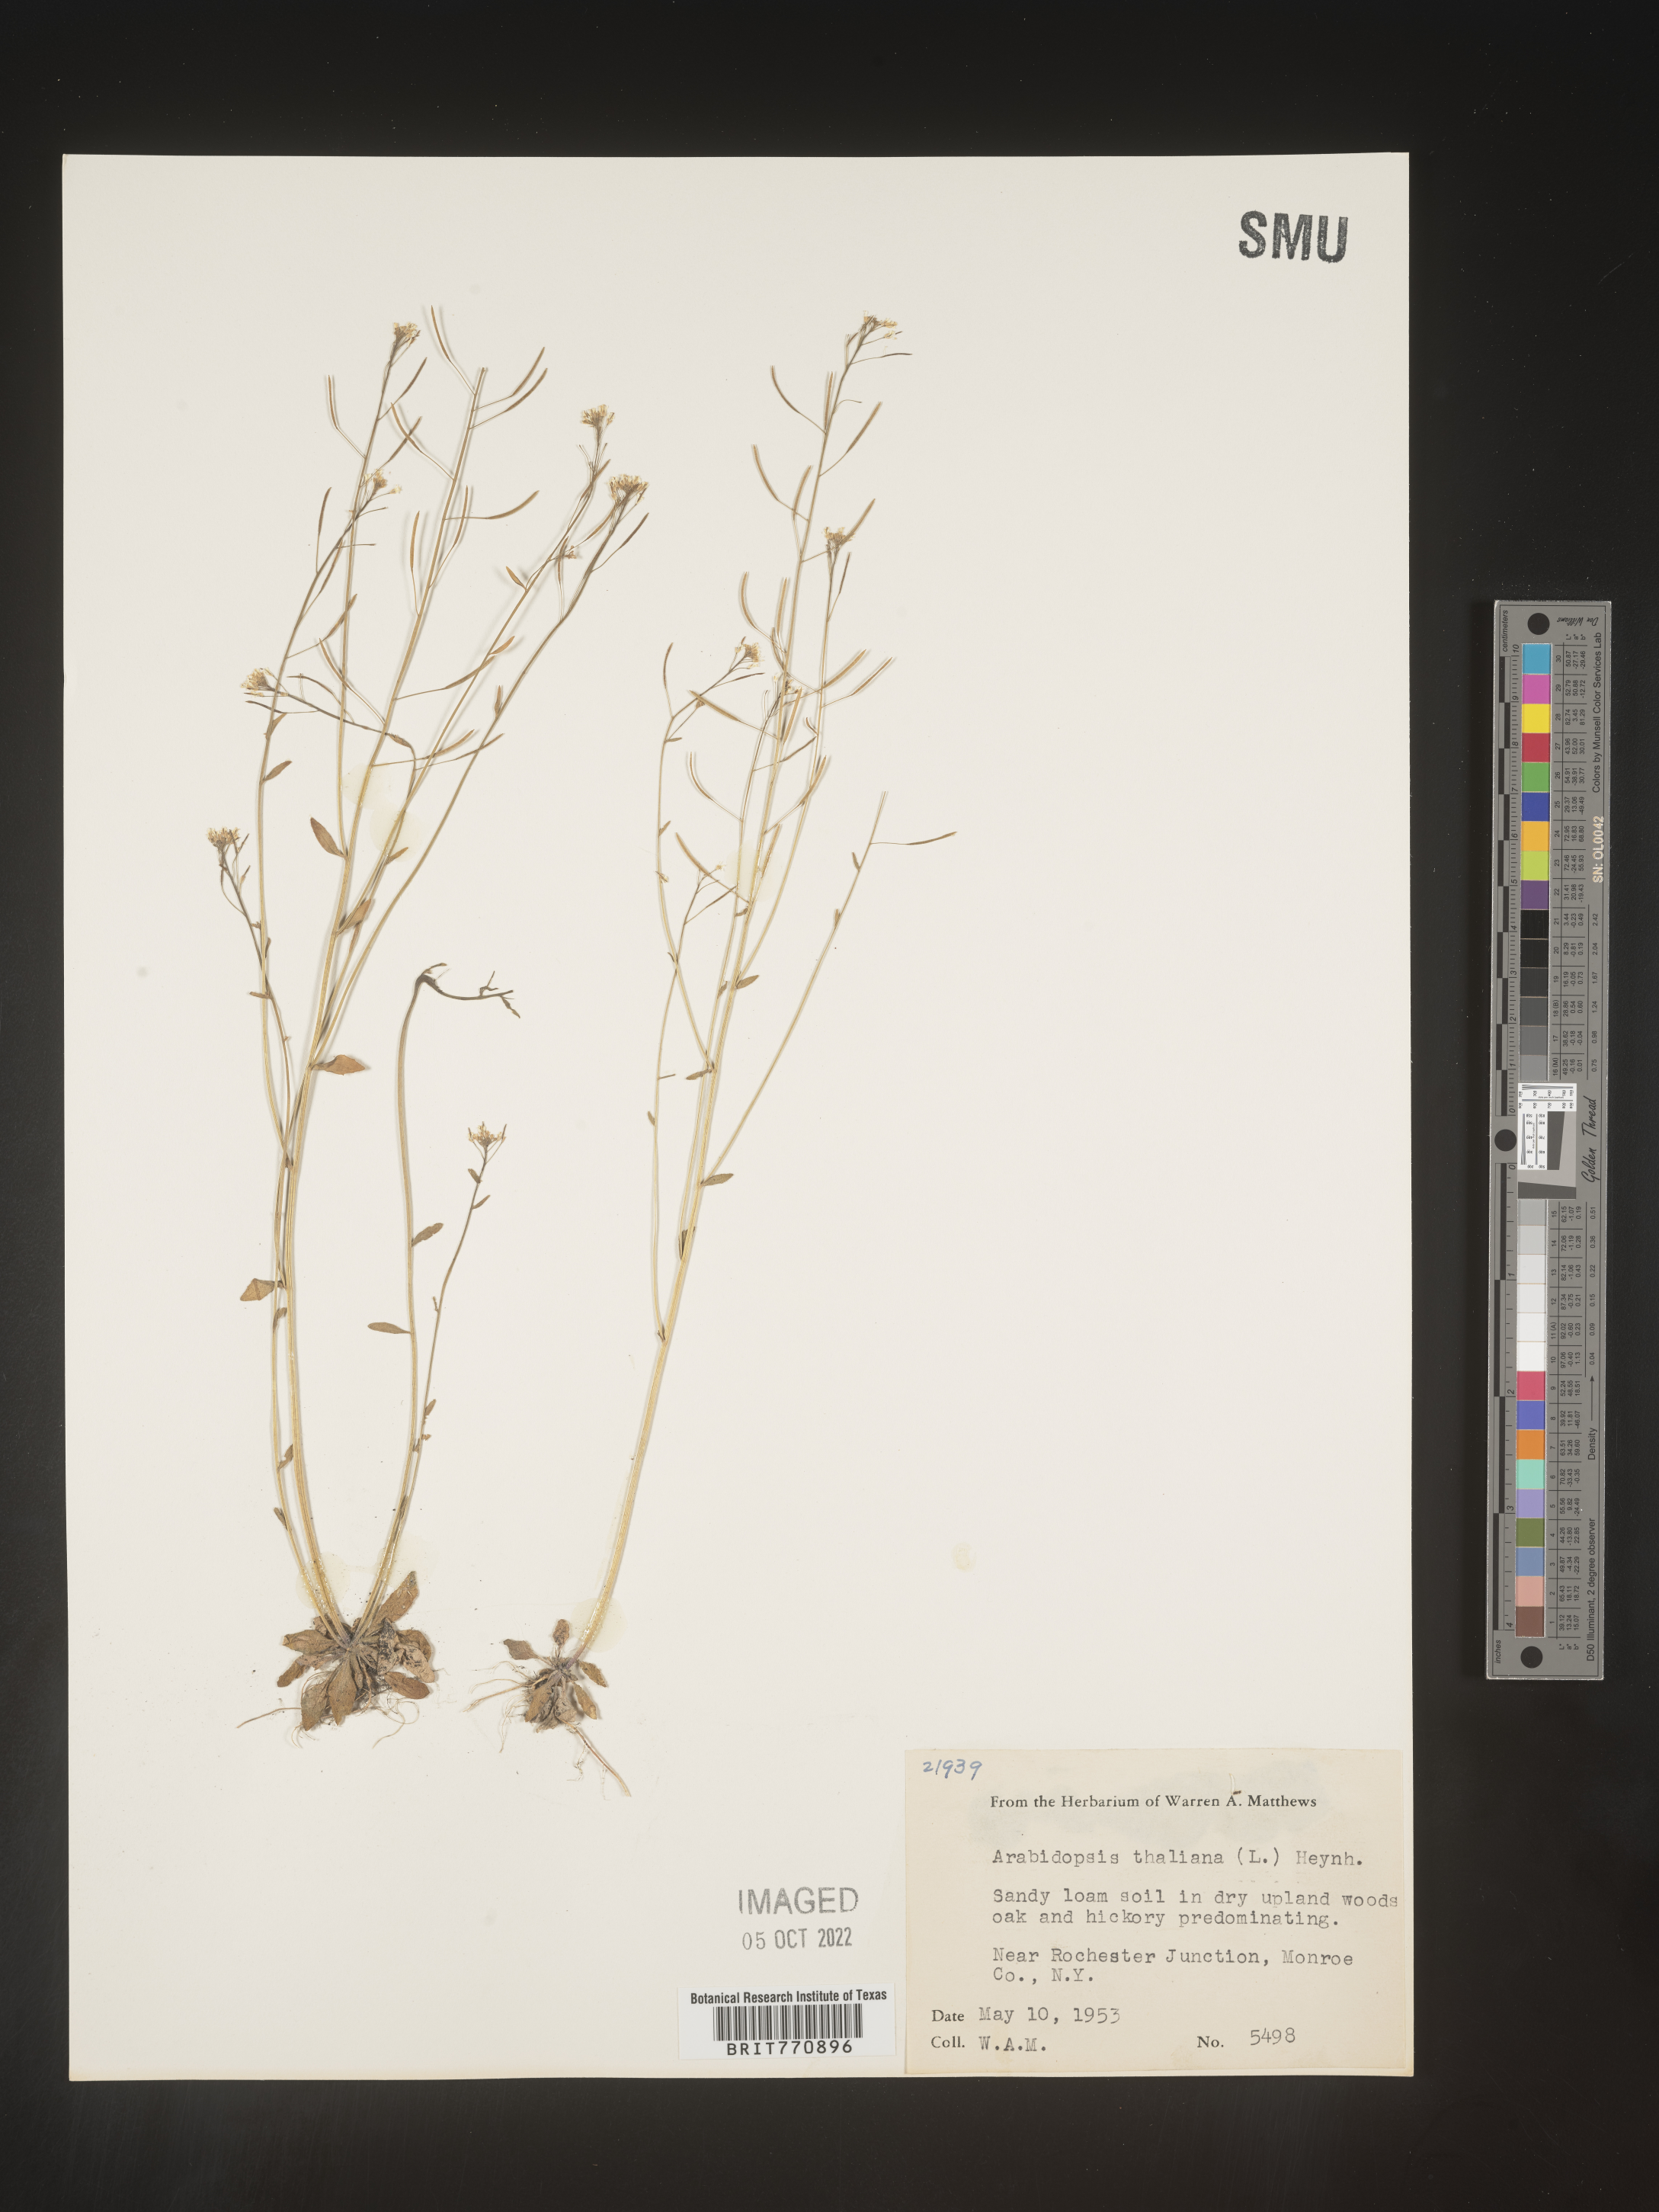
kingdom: Plantae
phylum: Tracheophyta
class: Magnoliopsida
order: Brassicales
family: Brassicaceae
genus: Arabidopsis
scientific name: Arabidopsis thaliana
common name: Thale cress
